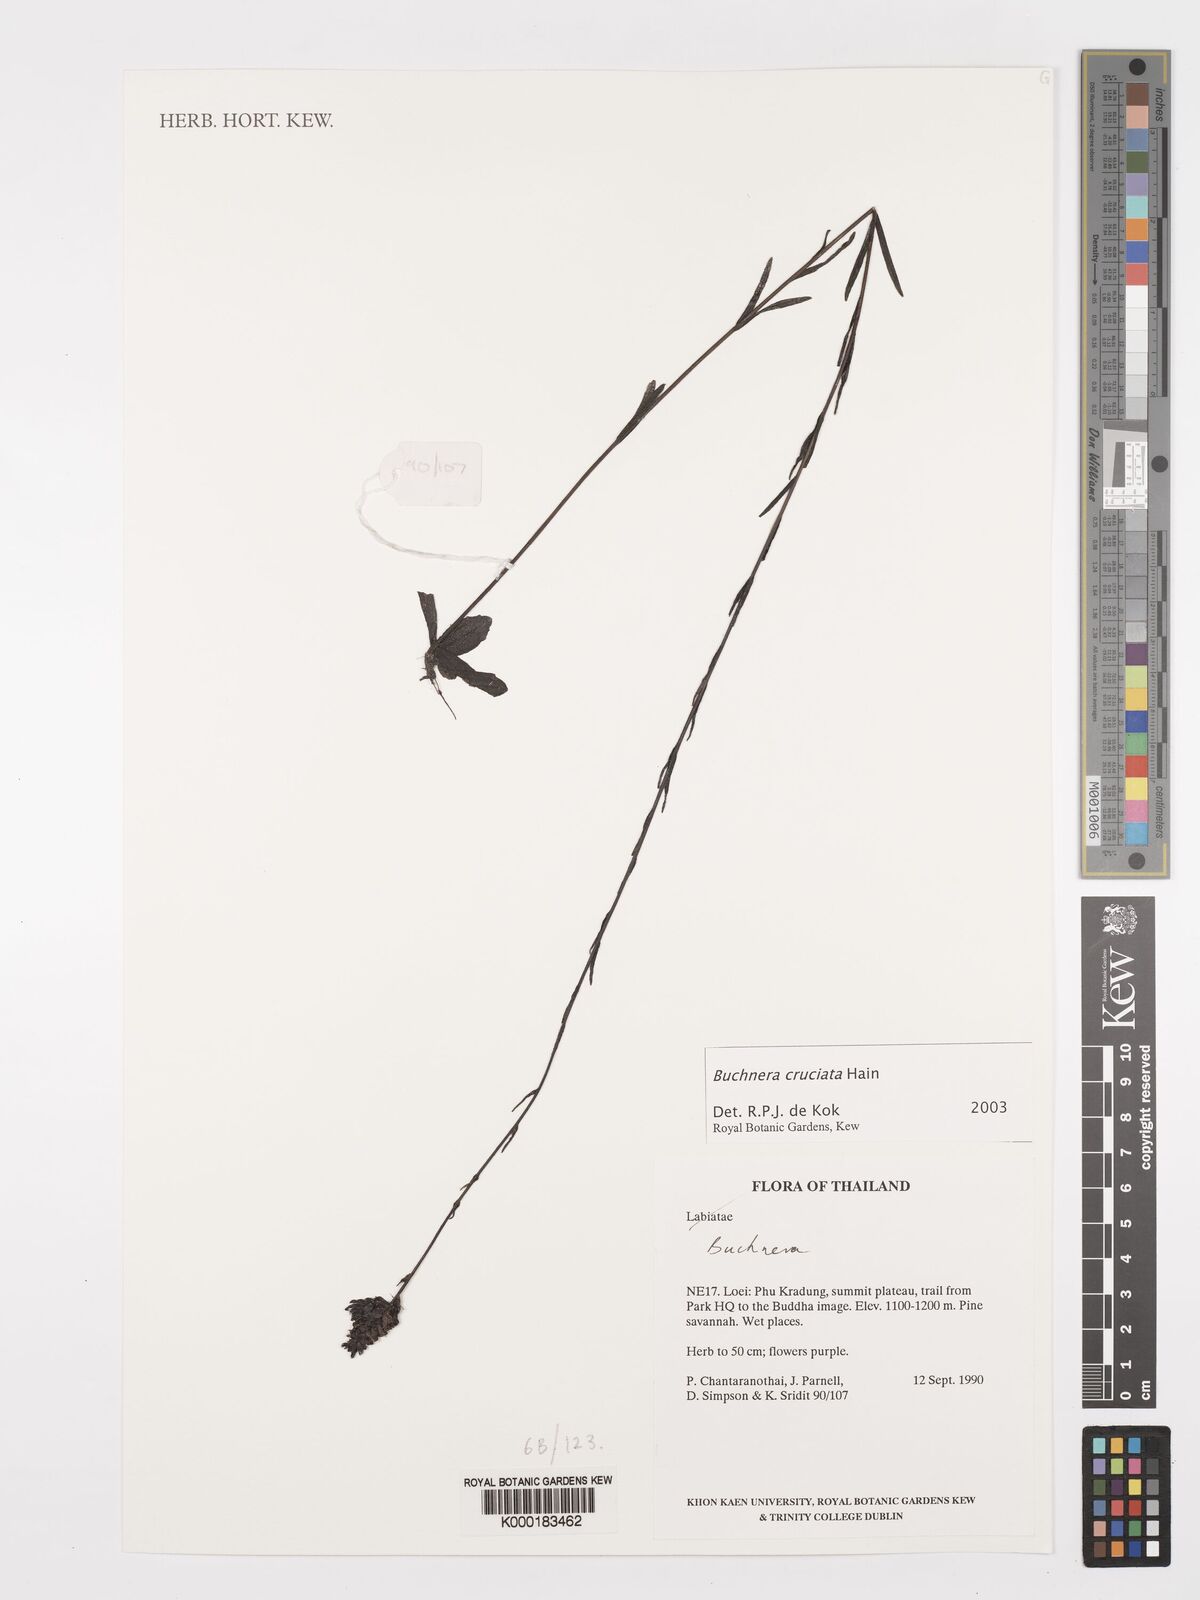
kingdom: Plantae
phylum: Tracheophyta
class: Magnoliopsida
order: Lamiales
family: Orobanchaceae
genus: Buchnera
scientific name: Buchnera
